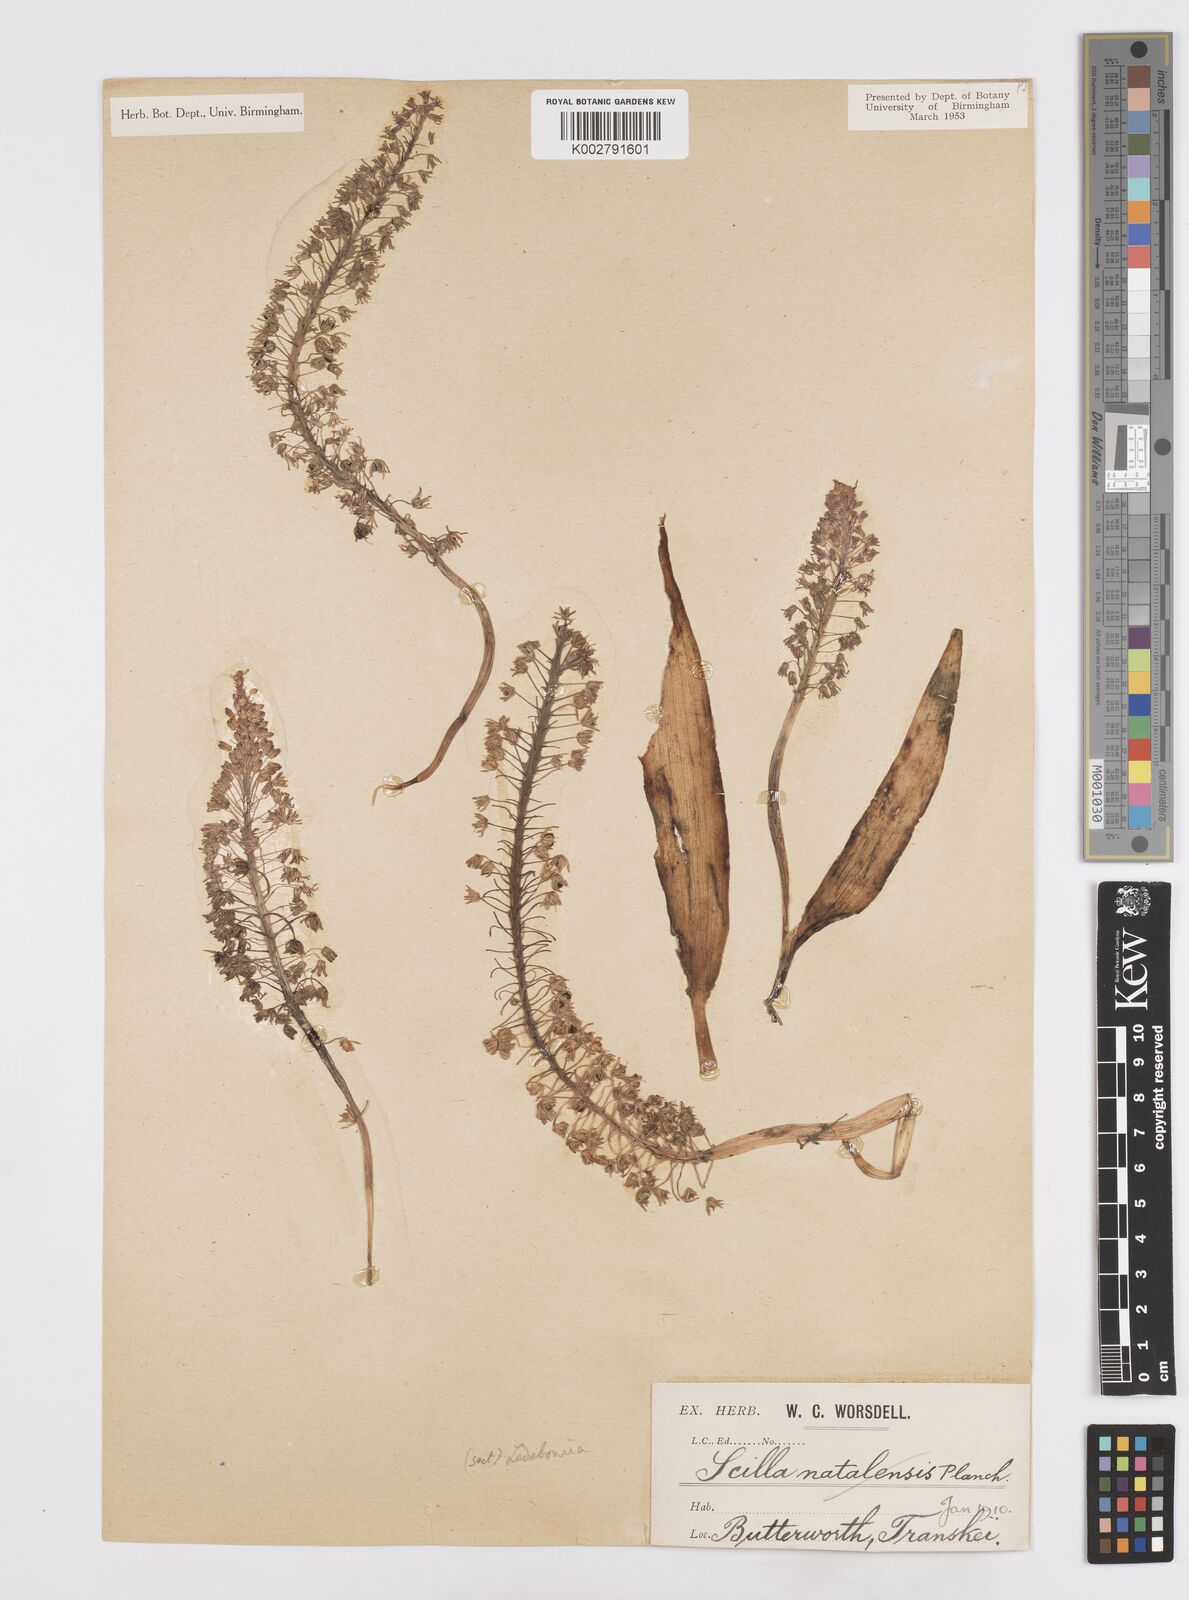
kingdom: Plantae
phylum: Tracheophyta
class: Liliopsida
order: Asparagales
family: Asparagaceae
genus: Scilla
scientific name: Scilla
